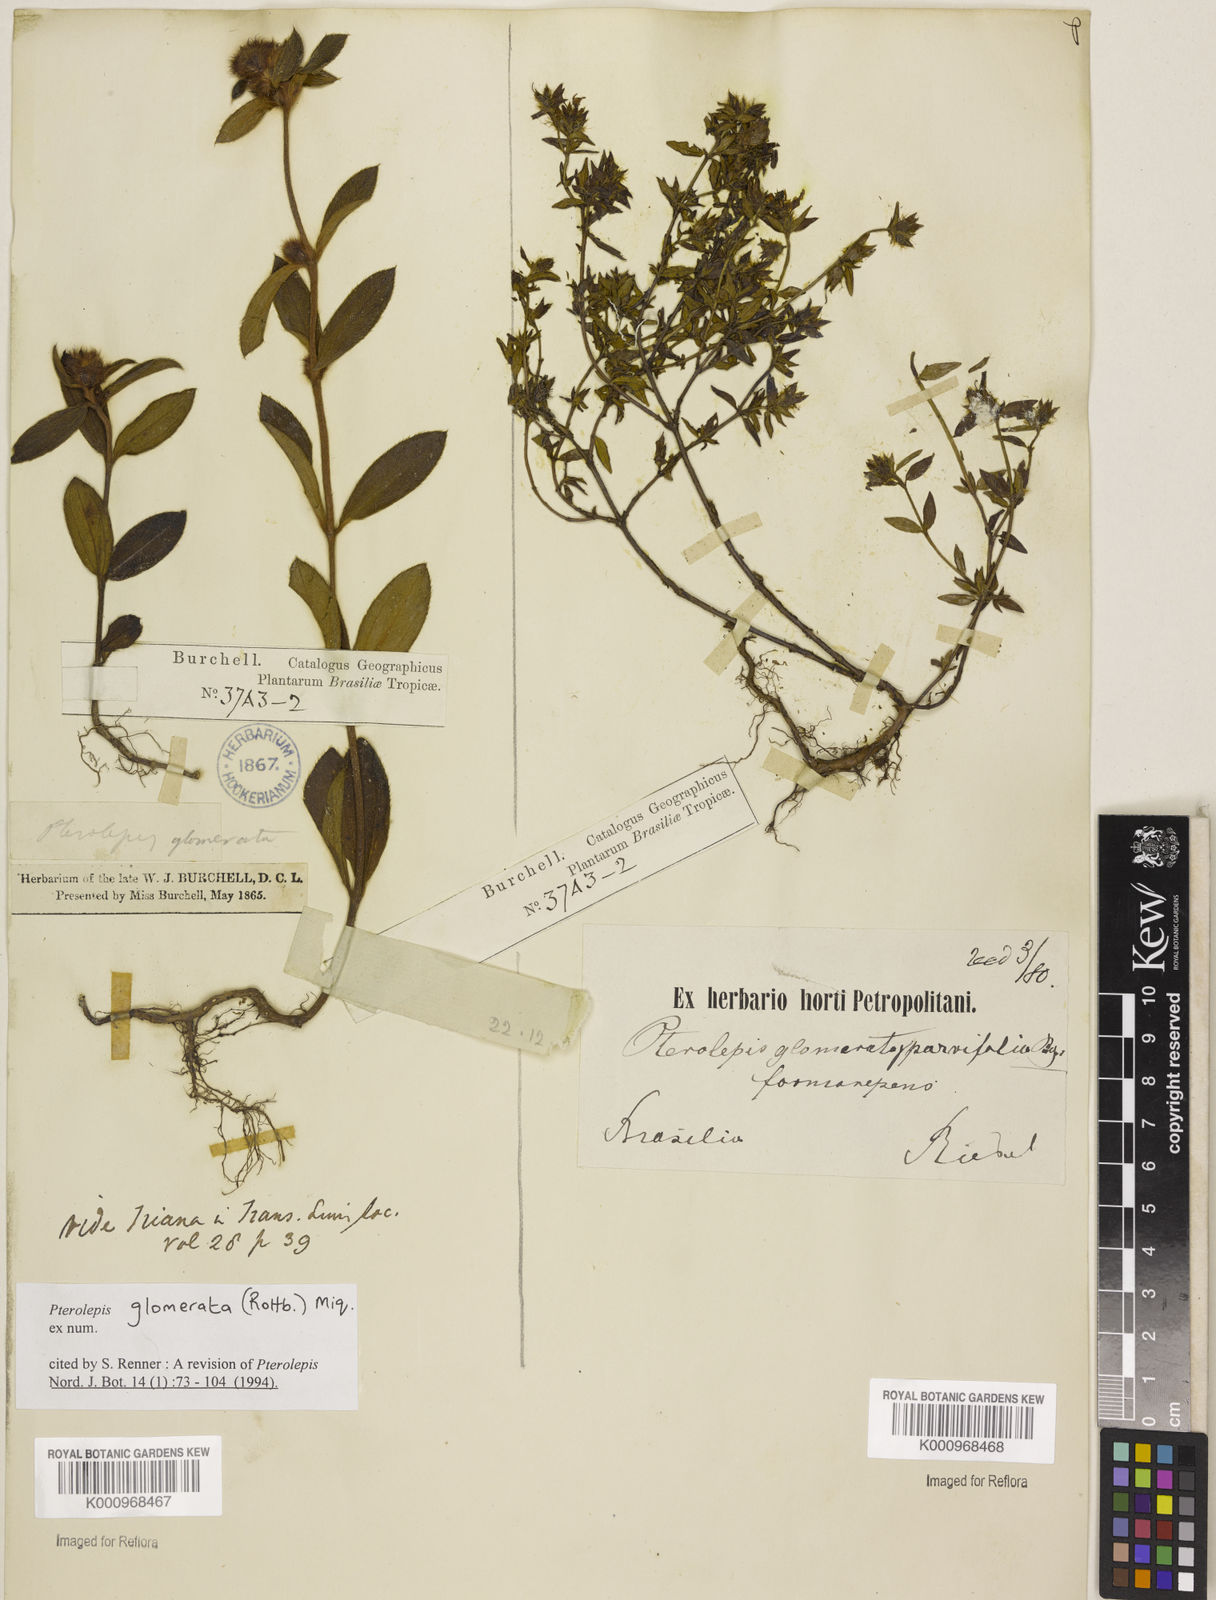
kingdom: Plantae
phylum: Tracheophyta
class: Magnoliopsida
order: Myrtales
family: Melastomataceae
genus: Pterolepis
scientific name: Pterolepis glomerata
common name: False meadowbeauty
